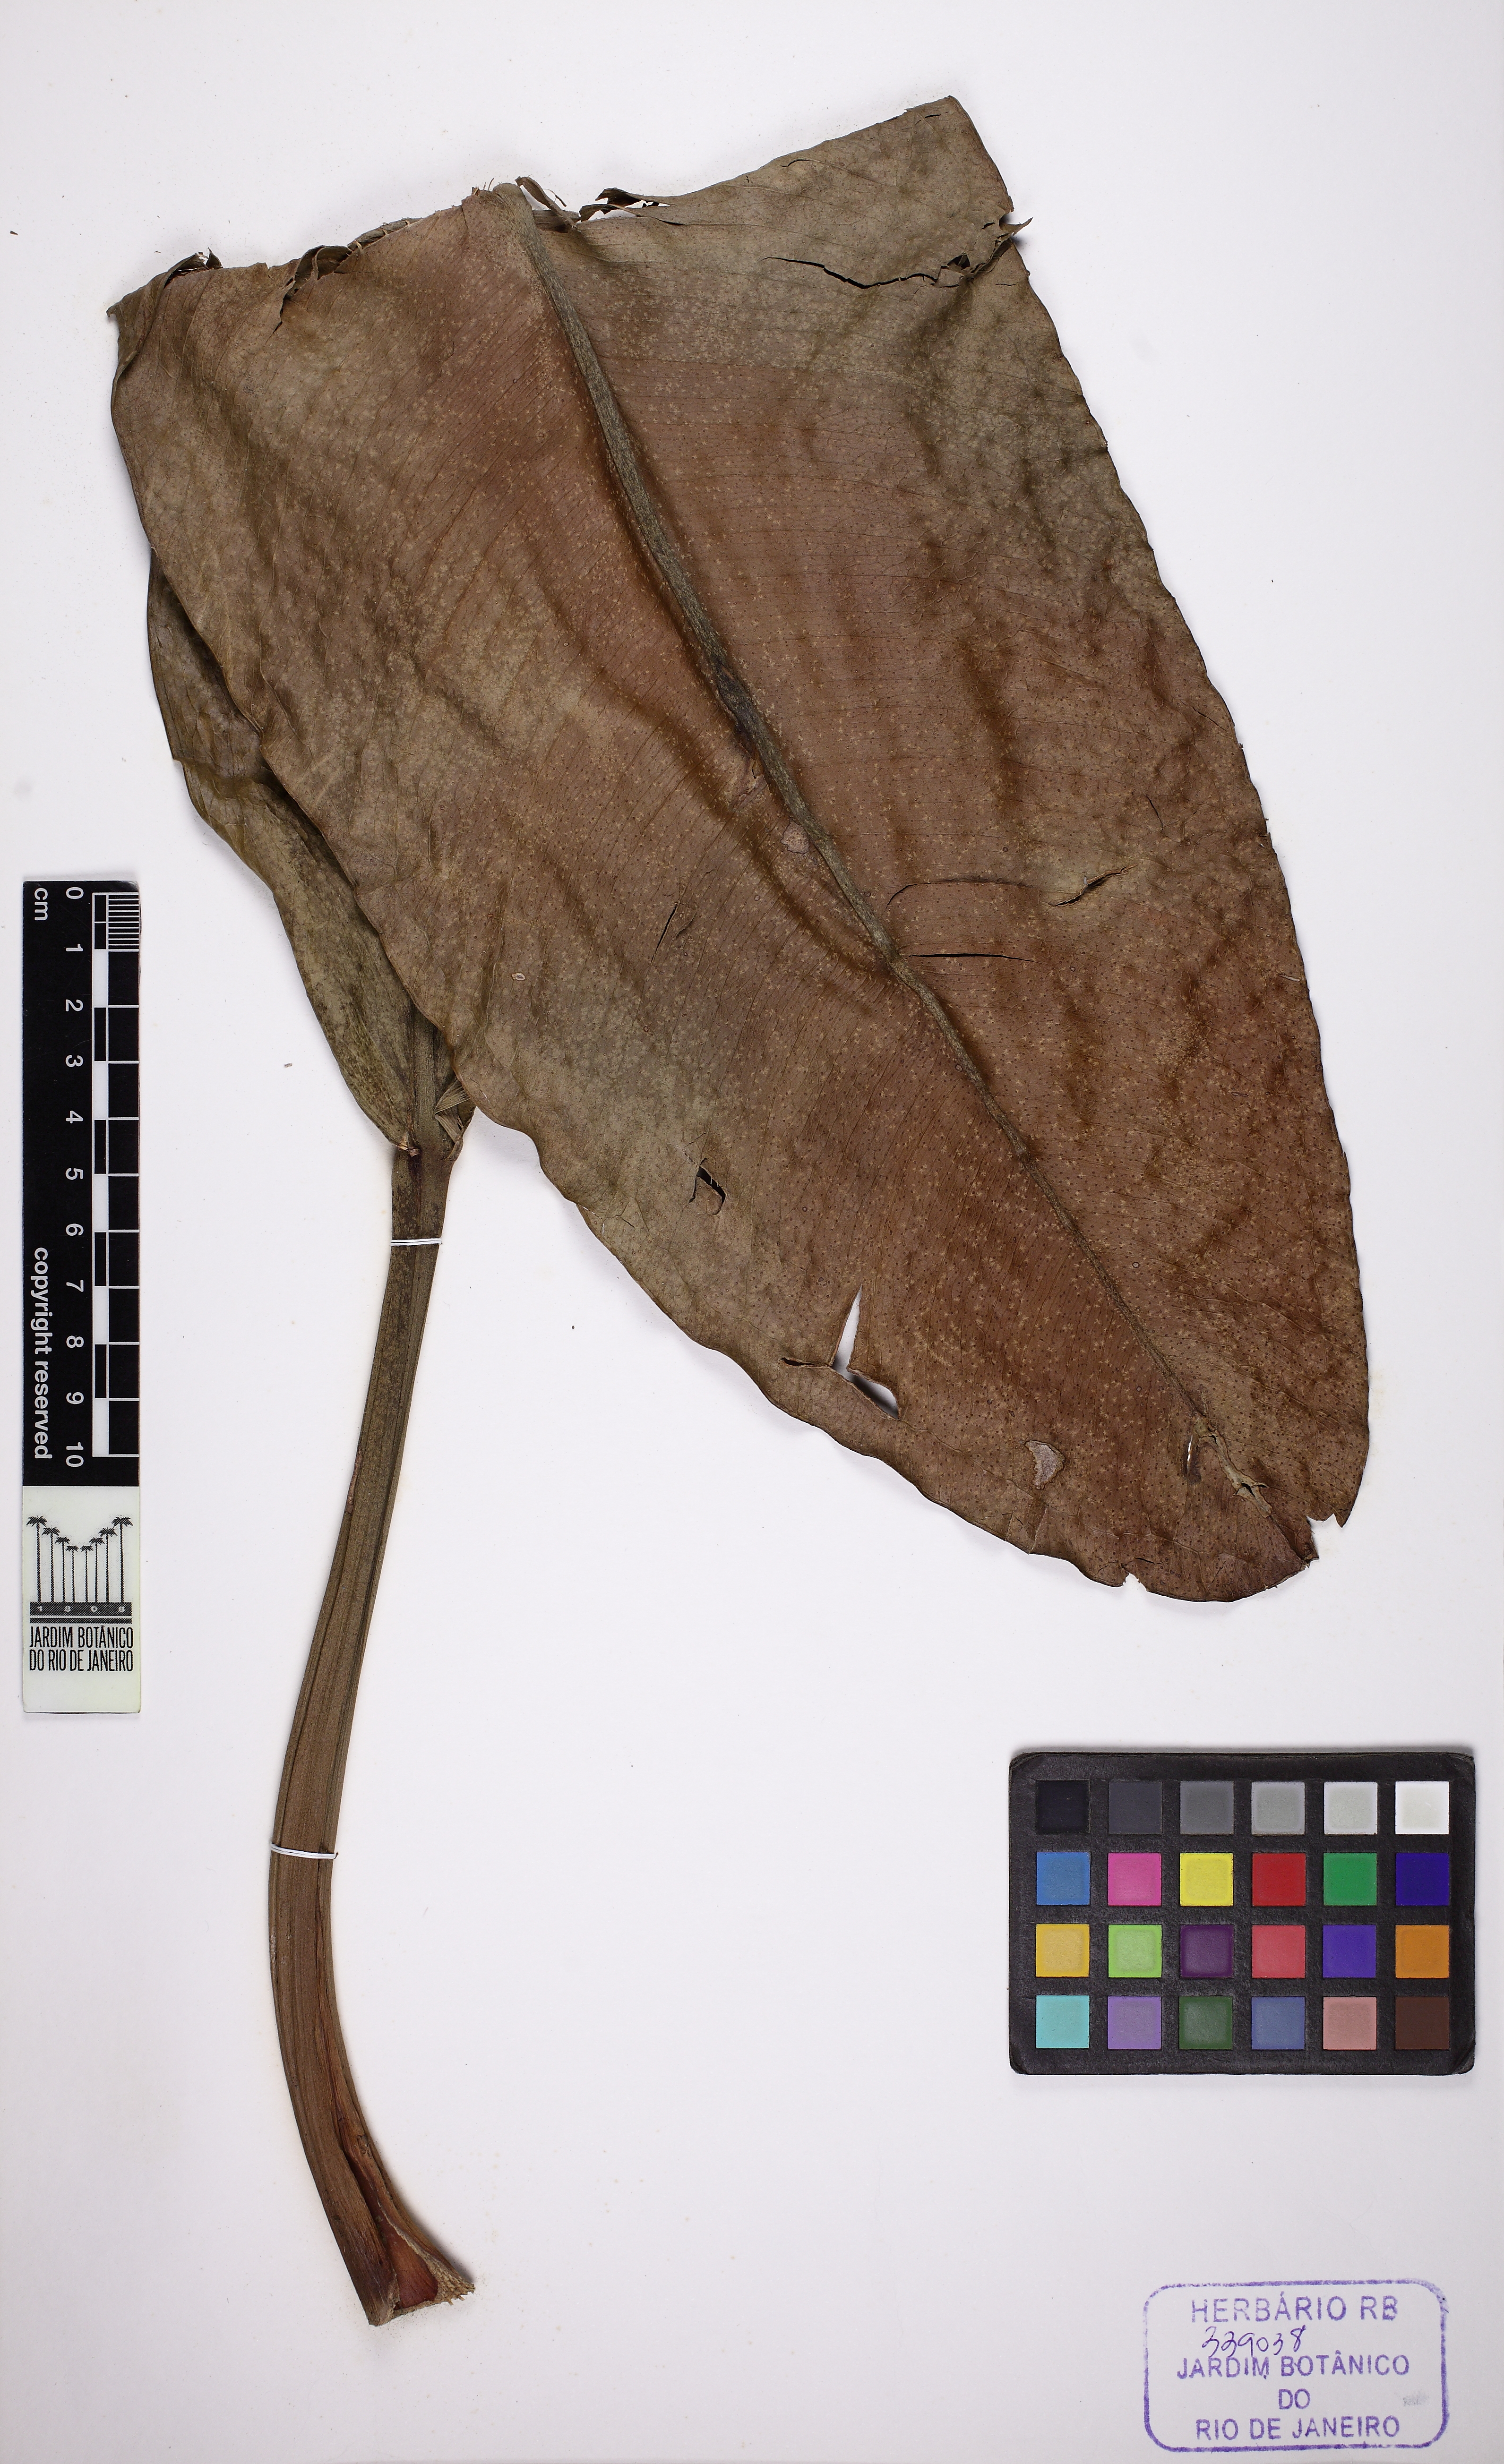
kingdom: Plantae
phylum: Tracheophyta
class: Liliopsida
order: Alismatales
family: Araceae
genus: Anthurium
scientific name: Anthurium binotii
